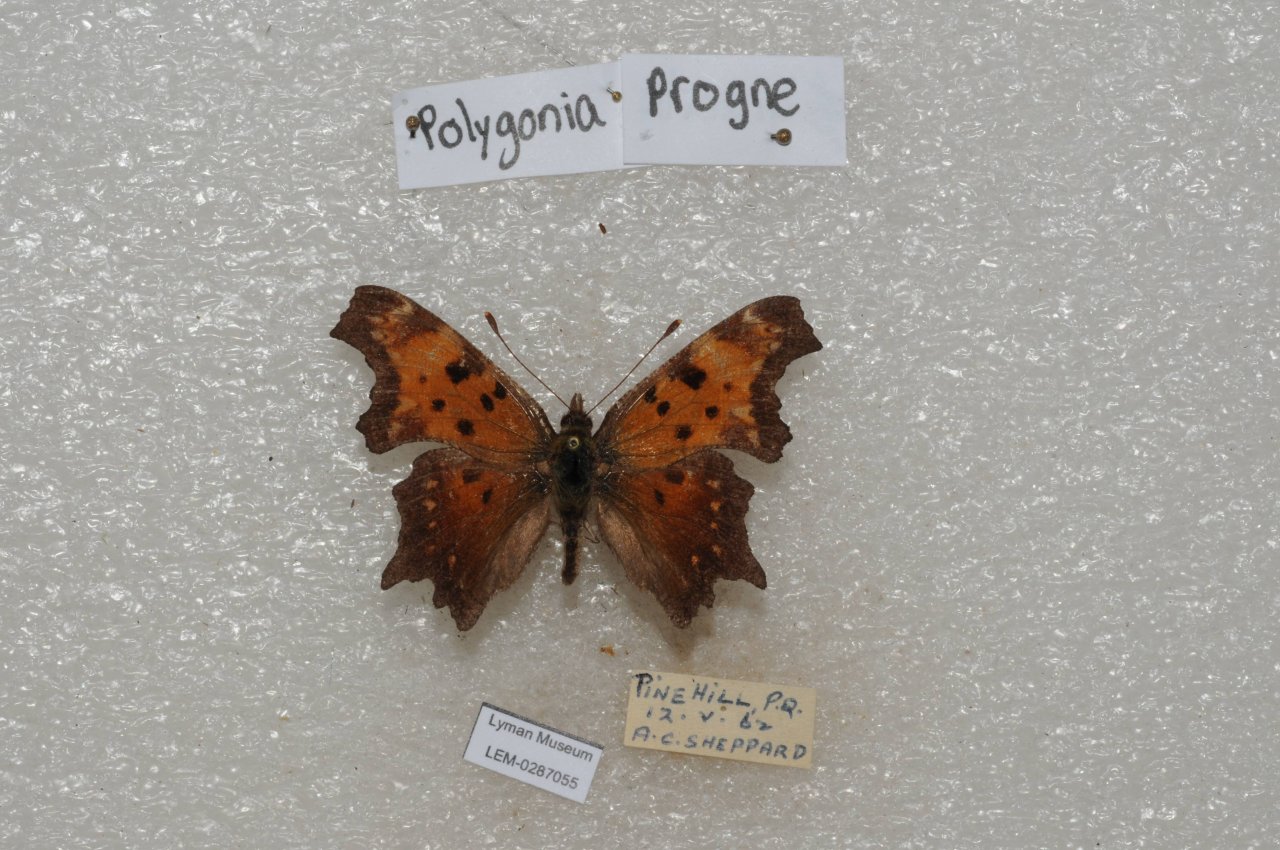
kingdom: Animalia
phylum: Arthropoda
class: Insecta
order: Lepidoptera
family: Nymphalidae
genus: Polygonia
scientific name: Polygonia progne
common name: Gray Comma
